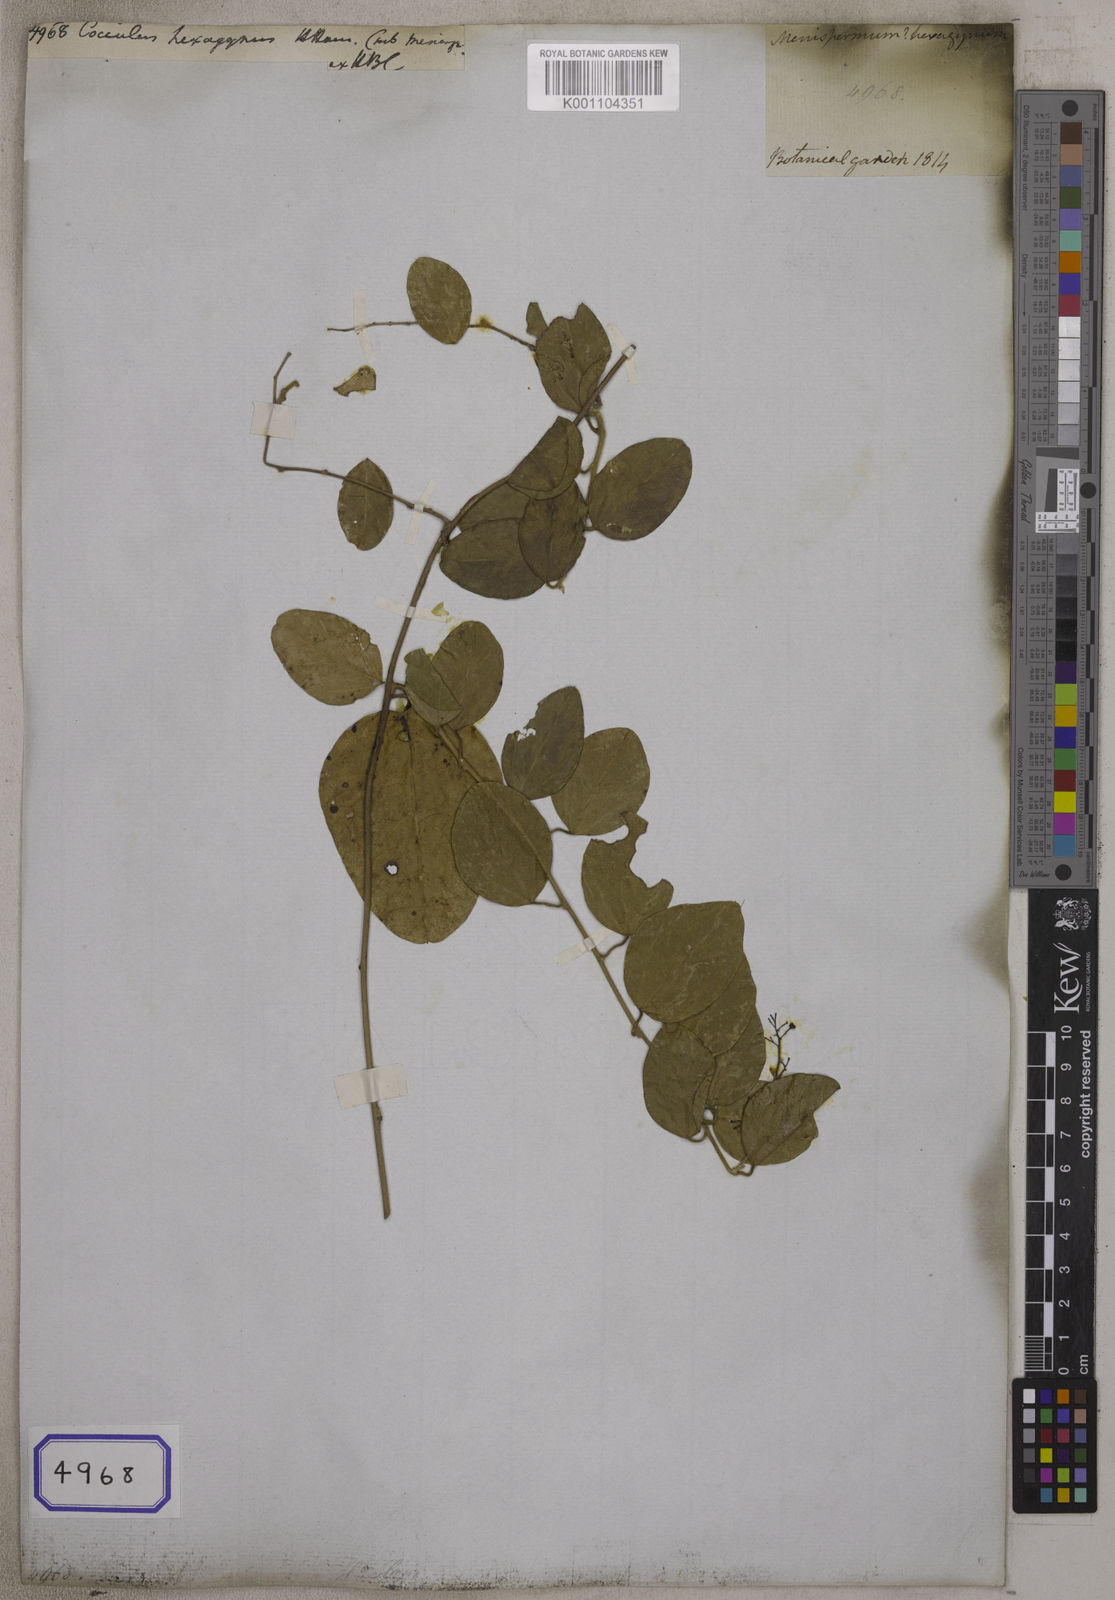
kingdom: Plantae
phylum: Tracheophyta
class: Magnoliopsida
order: Ranunculales
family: Menispermaceae
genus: Cocculus
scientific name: Cocculus orbiculatus
